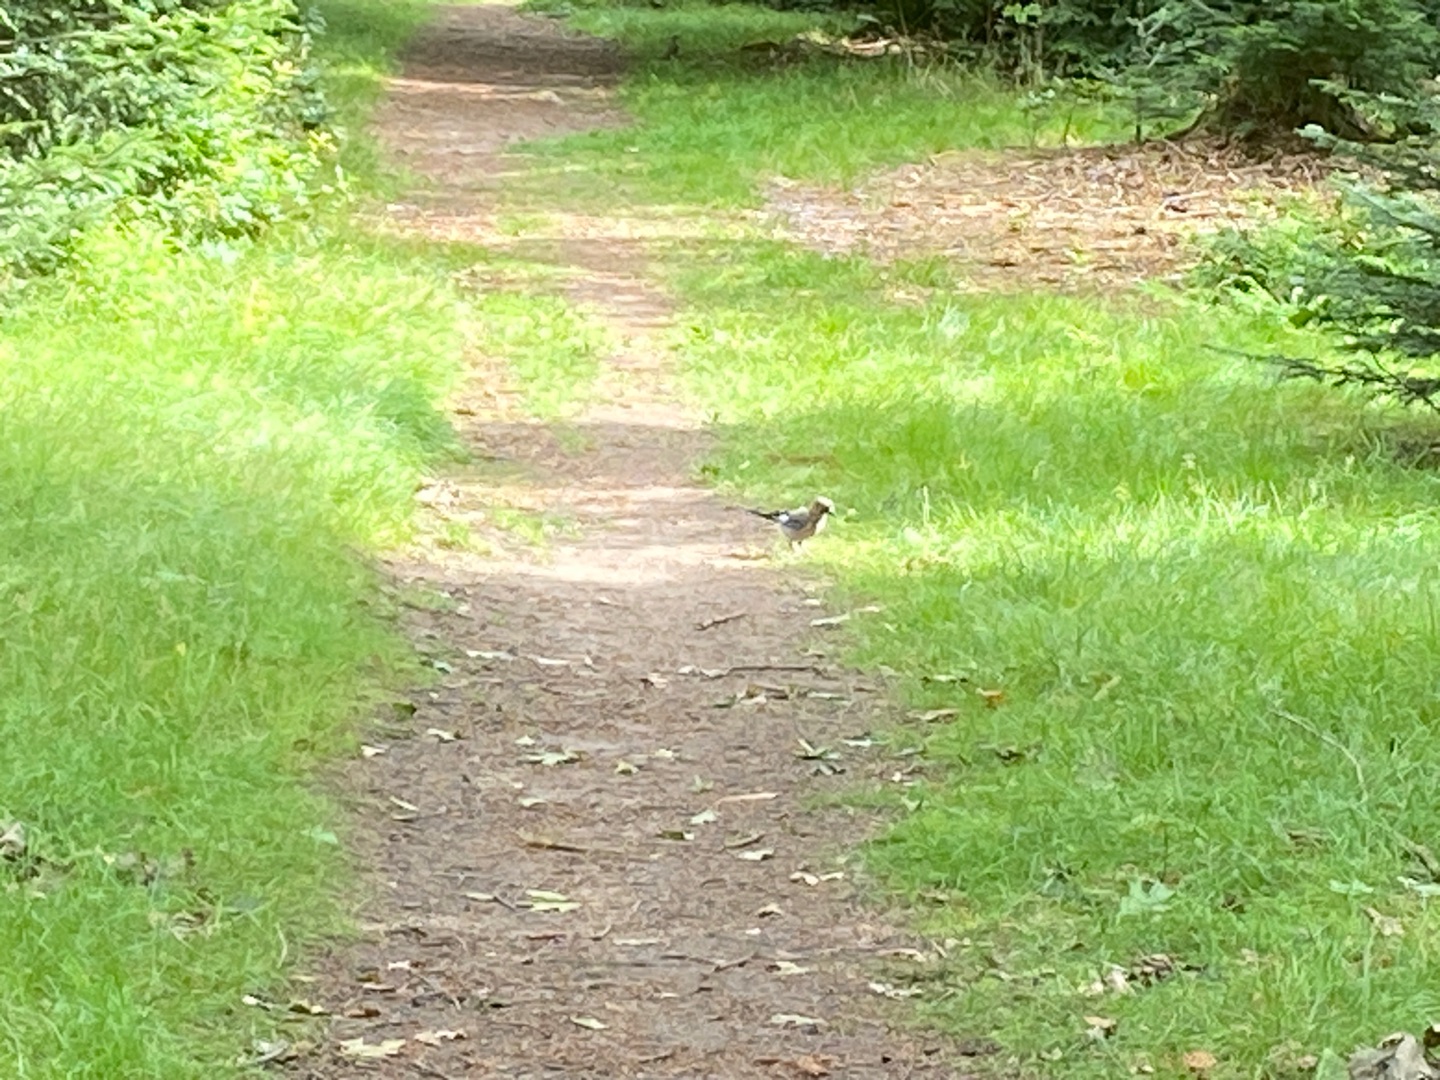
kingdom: Animalia
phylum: Chordata
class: Aves
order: Passeriformes
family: Corvidae
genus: Garrulus
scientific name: Garrulus glandarius
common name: Skovskade
